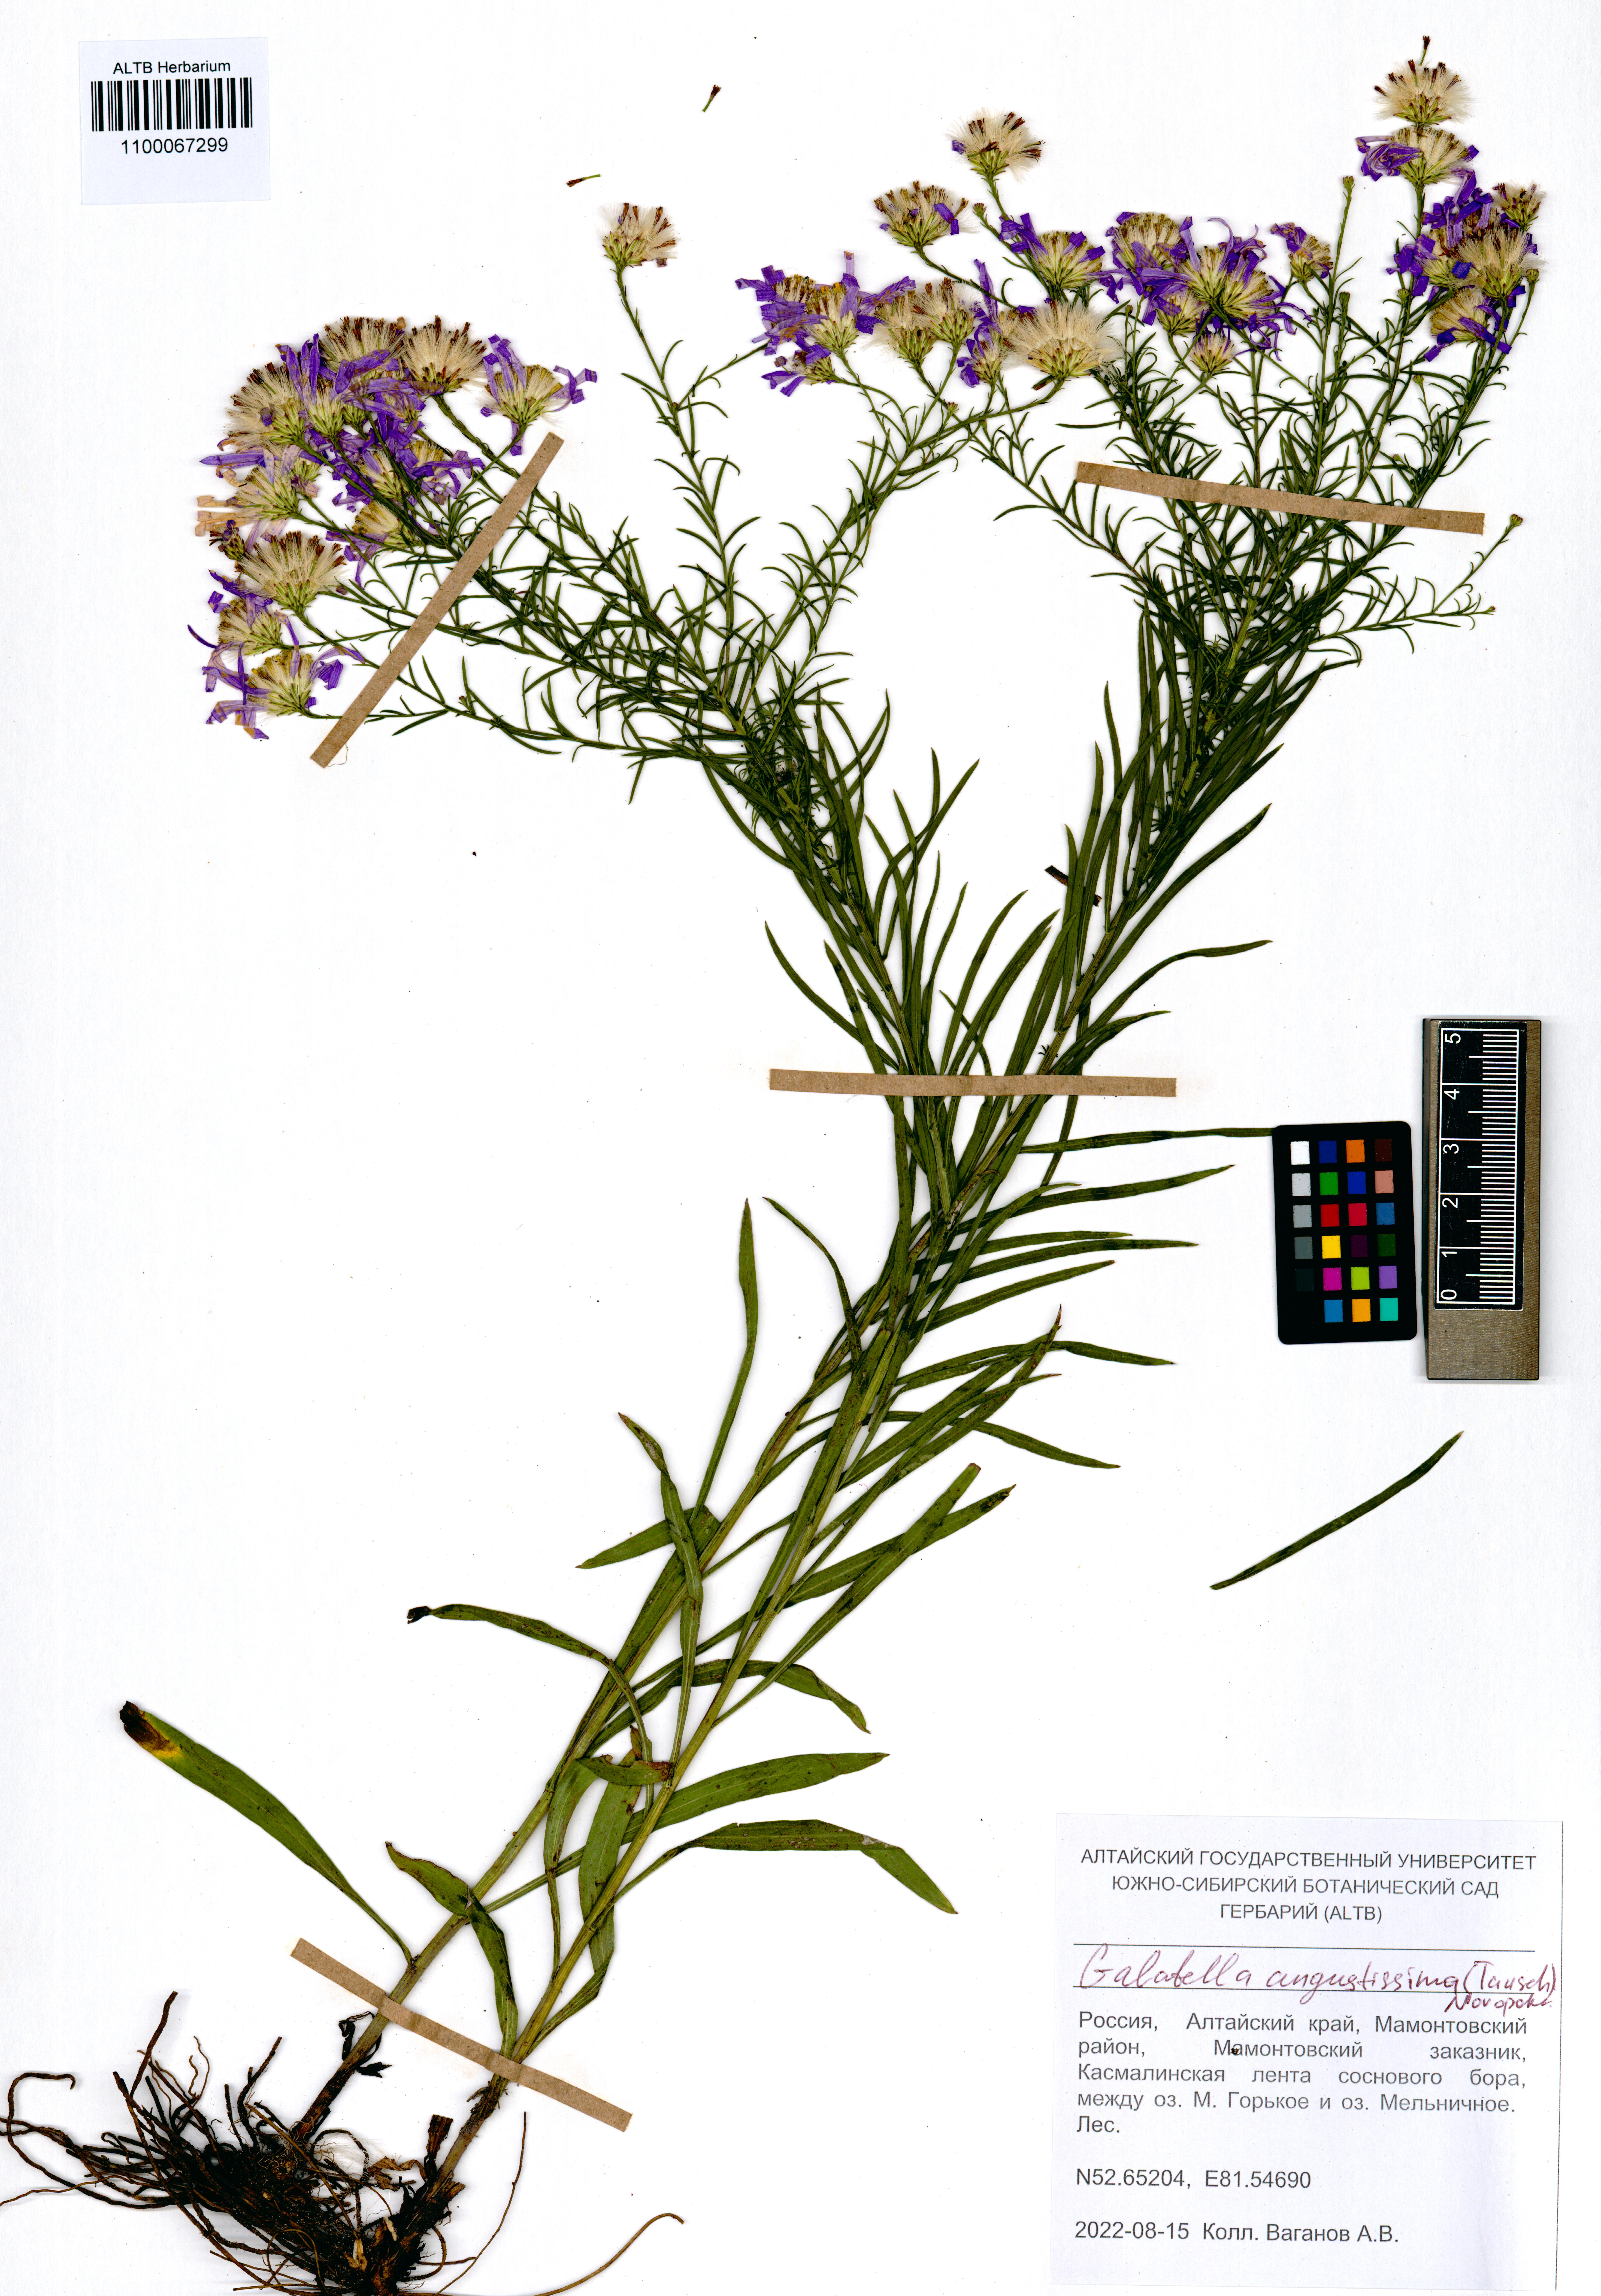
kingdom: Plantae
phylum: Tracheophyta
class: Magnoliopsida
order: Asterales
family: Asteraceae
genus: Galatella
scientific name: Galatella angustissima
